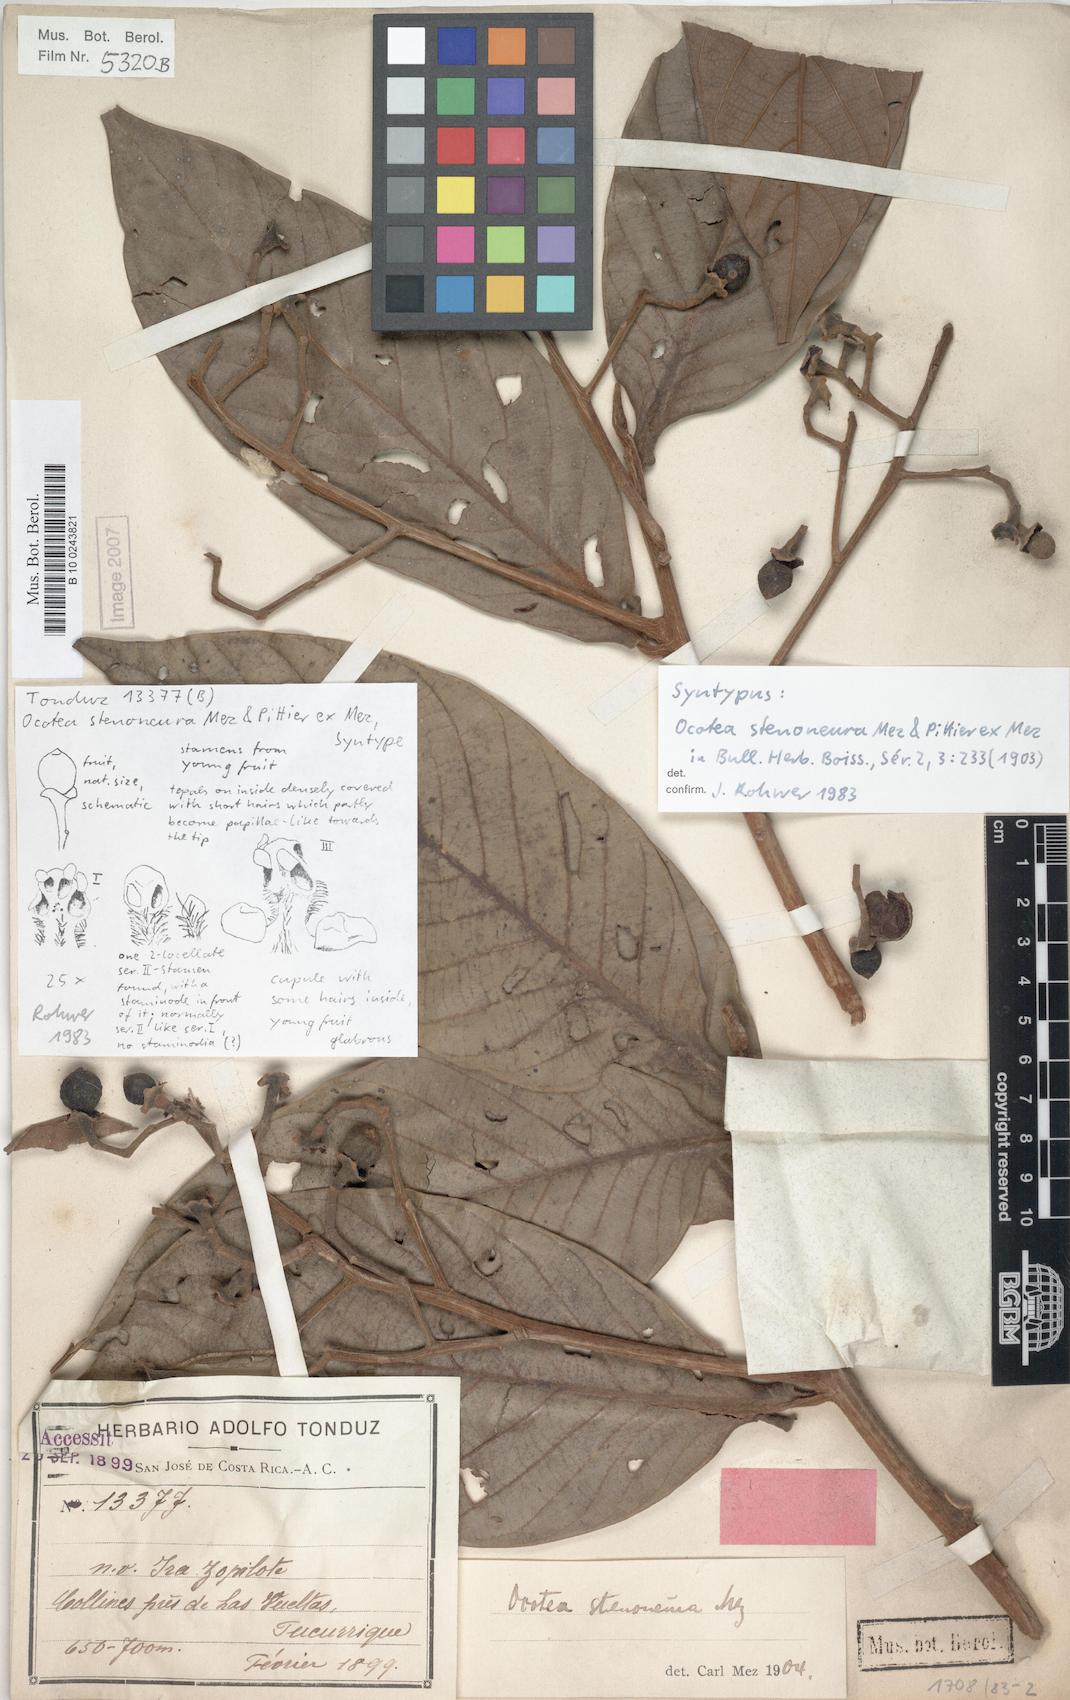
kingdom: Plantae
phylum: Tracheophyta
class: Magnoliopsida
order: Laurales
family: Lauraceae
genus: Ocotea
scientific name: Ocotea stenoneura
